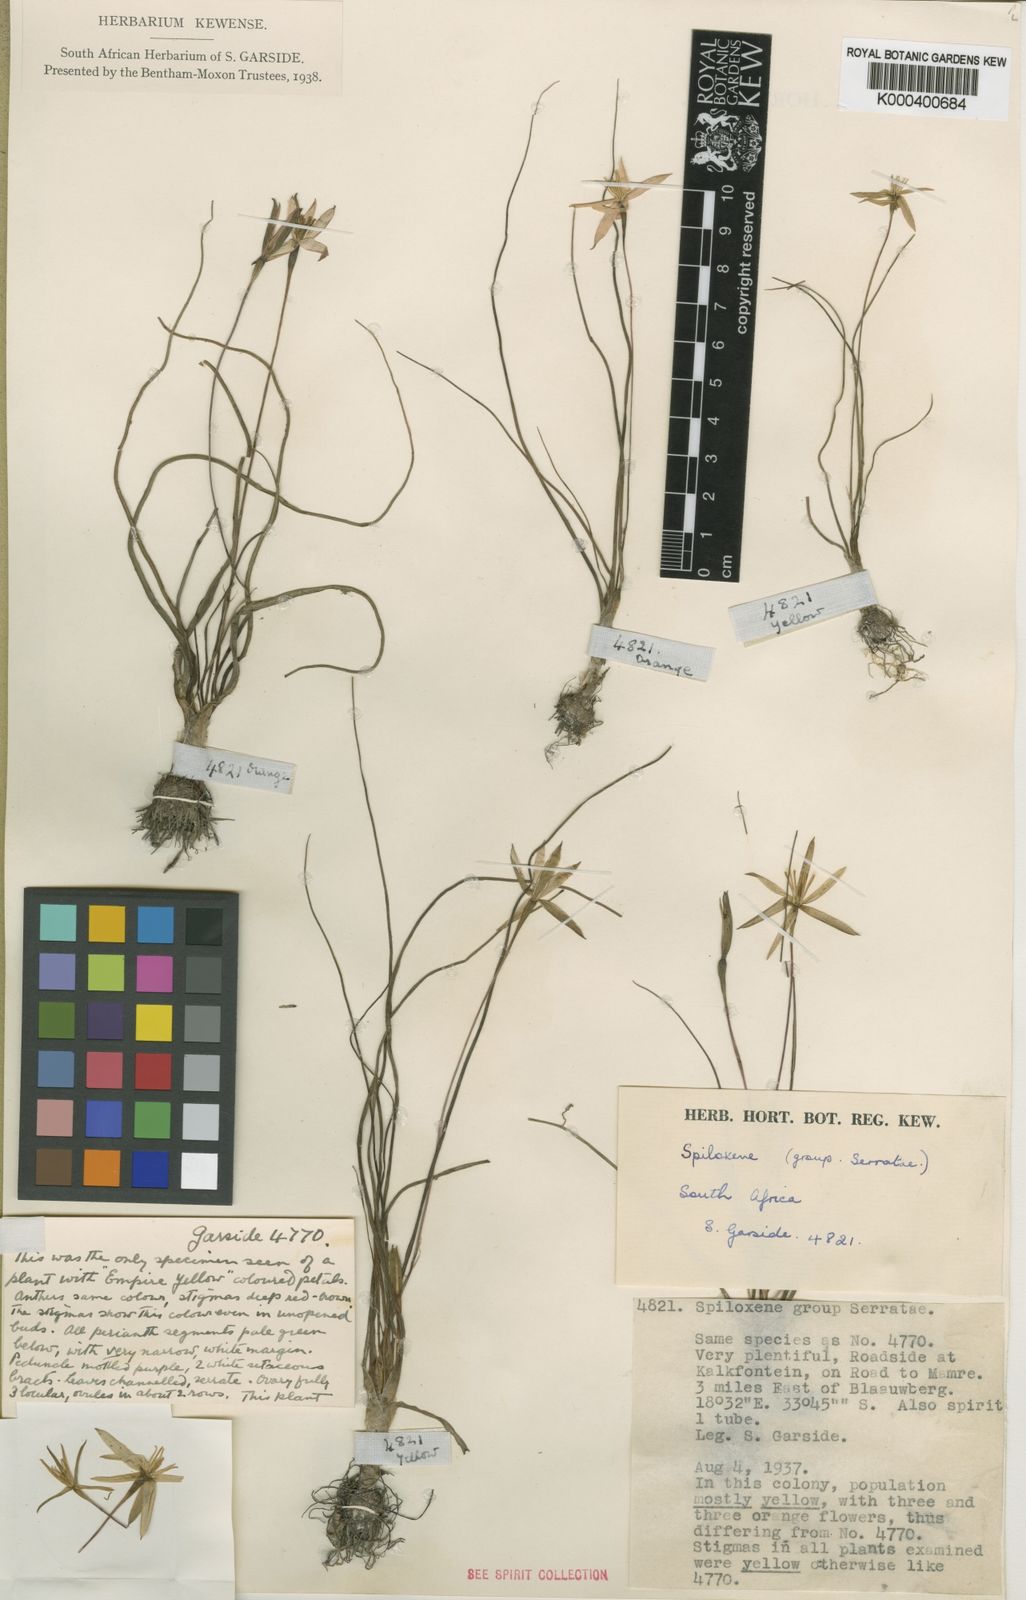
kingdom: Plantae
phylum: Tracheophyta
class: Liliopsida
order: Asparagales
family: Hypoxidaceae
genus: Pauridia
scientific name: Pauridia Spiloxene spec
